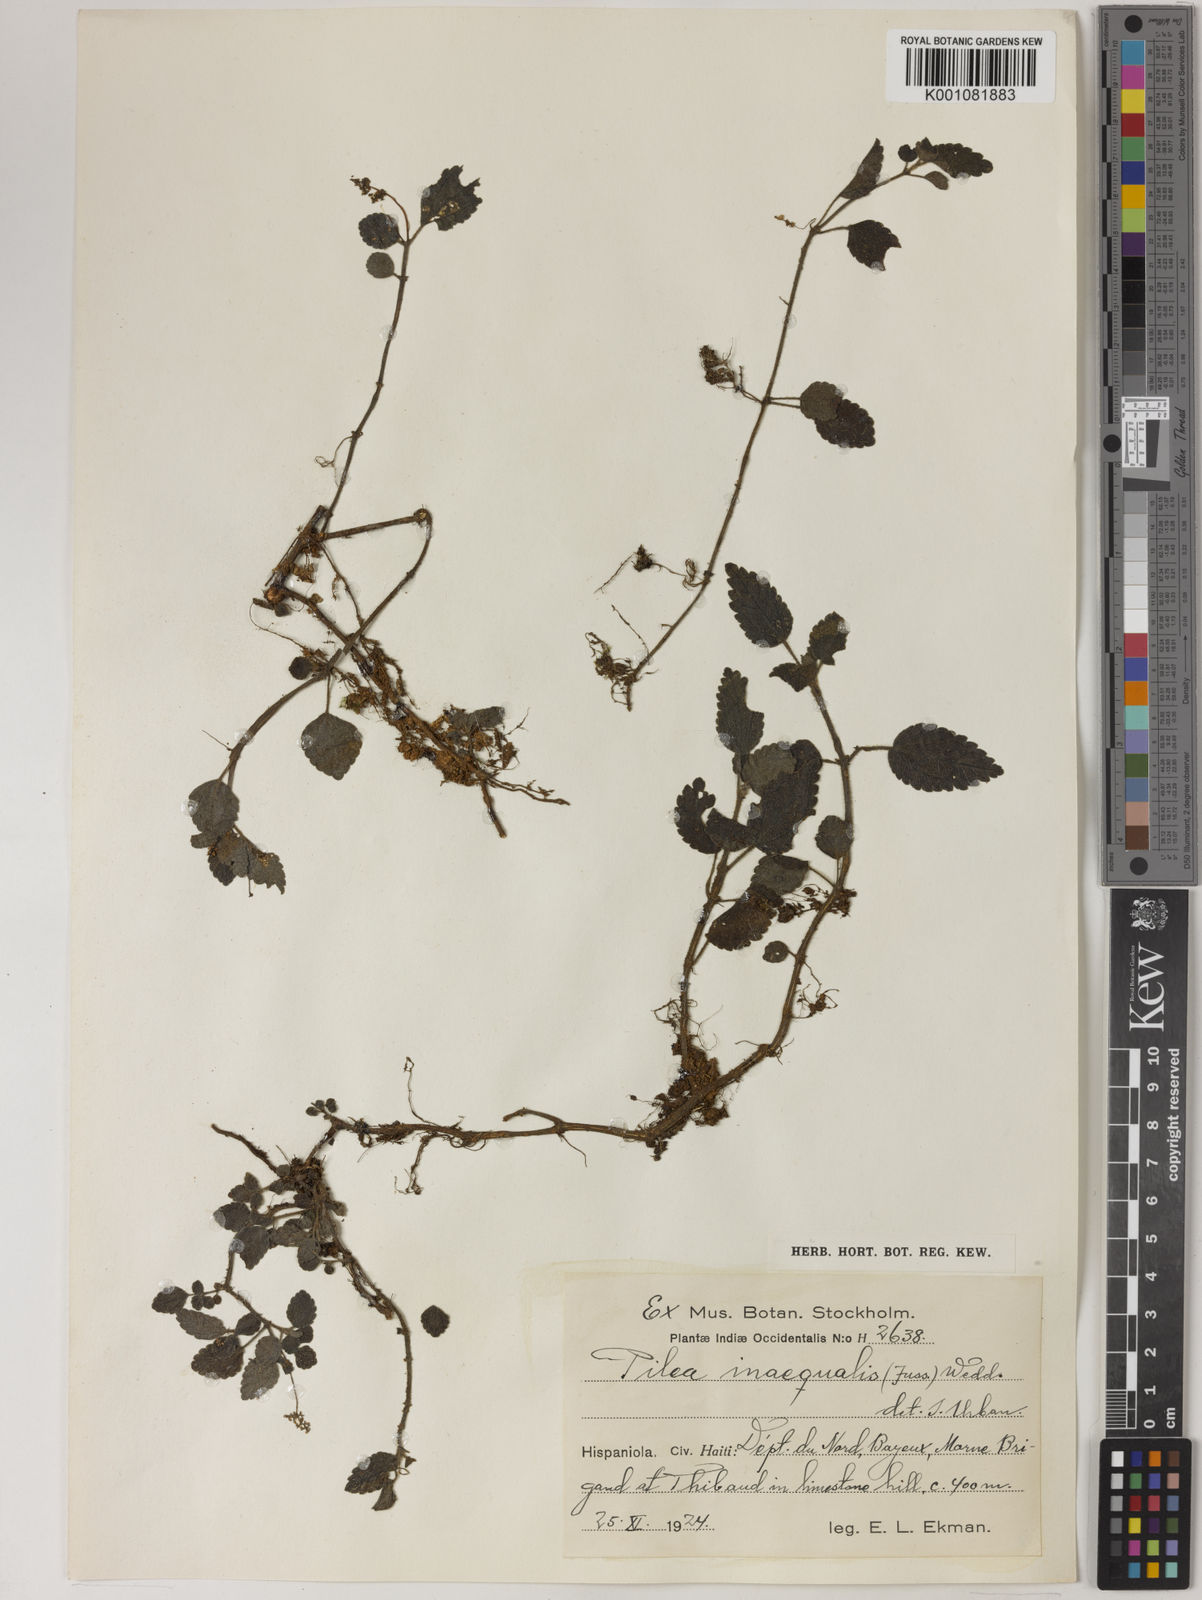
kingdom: Plantae
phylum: Tracheophyta
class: Magnoliopsida
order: Rosales
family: Urticaceae
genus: Pilea
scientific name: Pilea inaequalis
